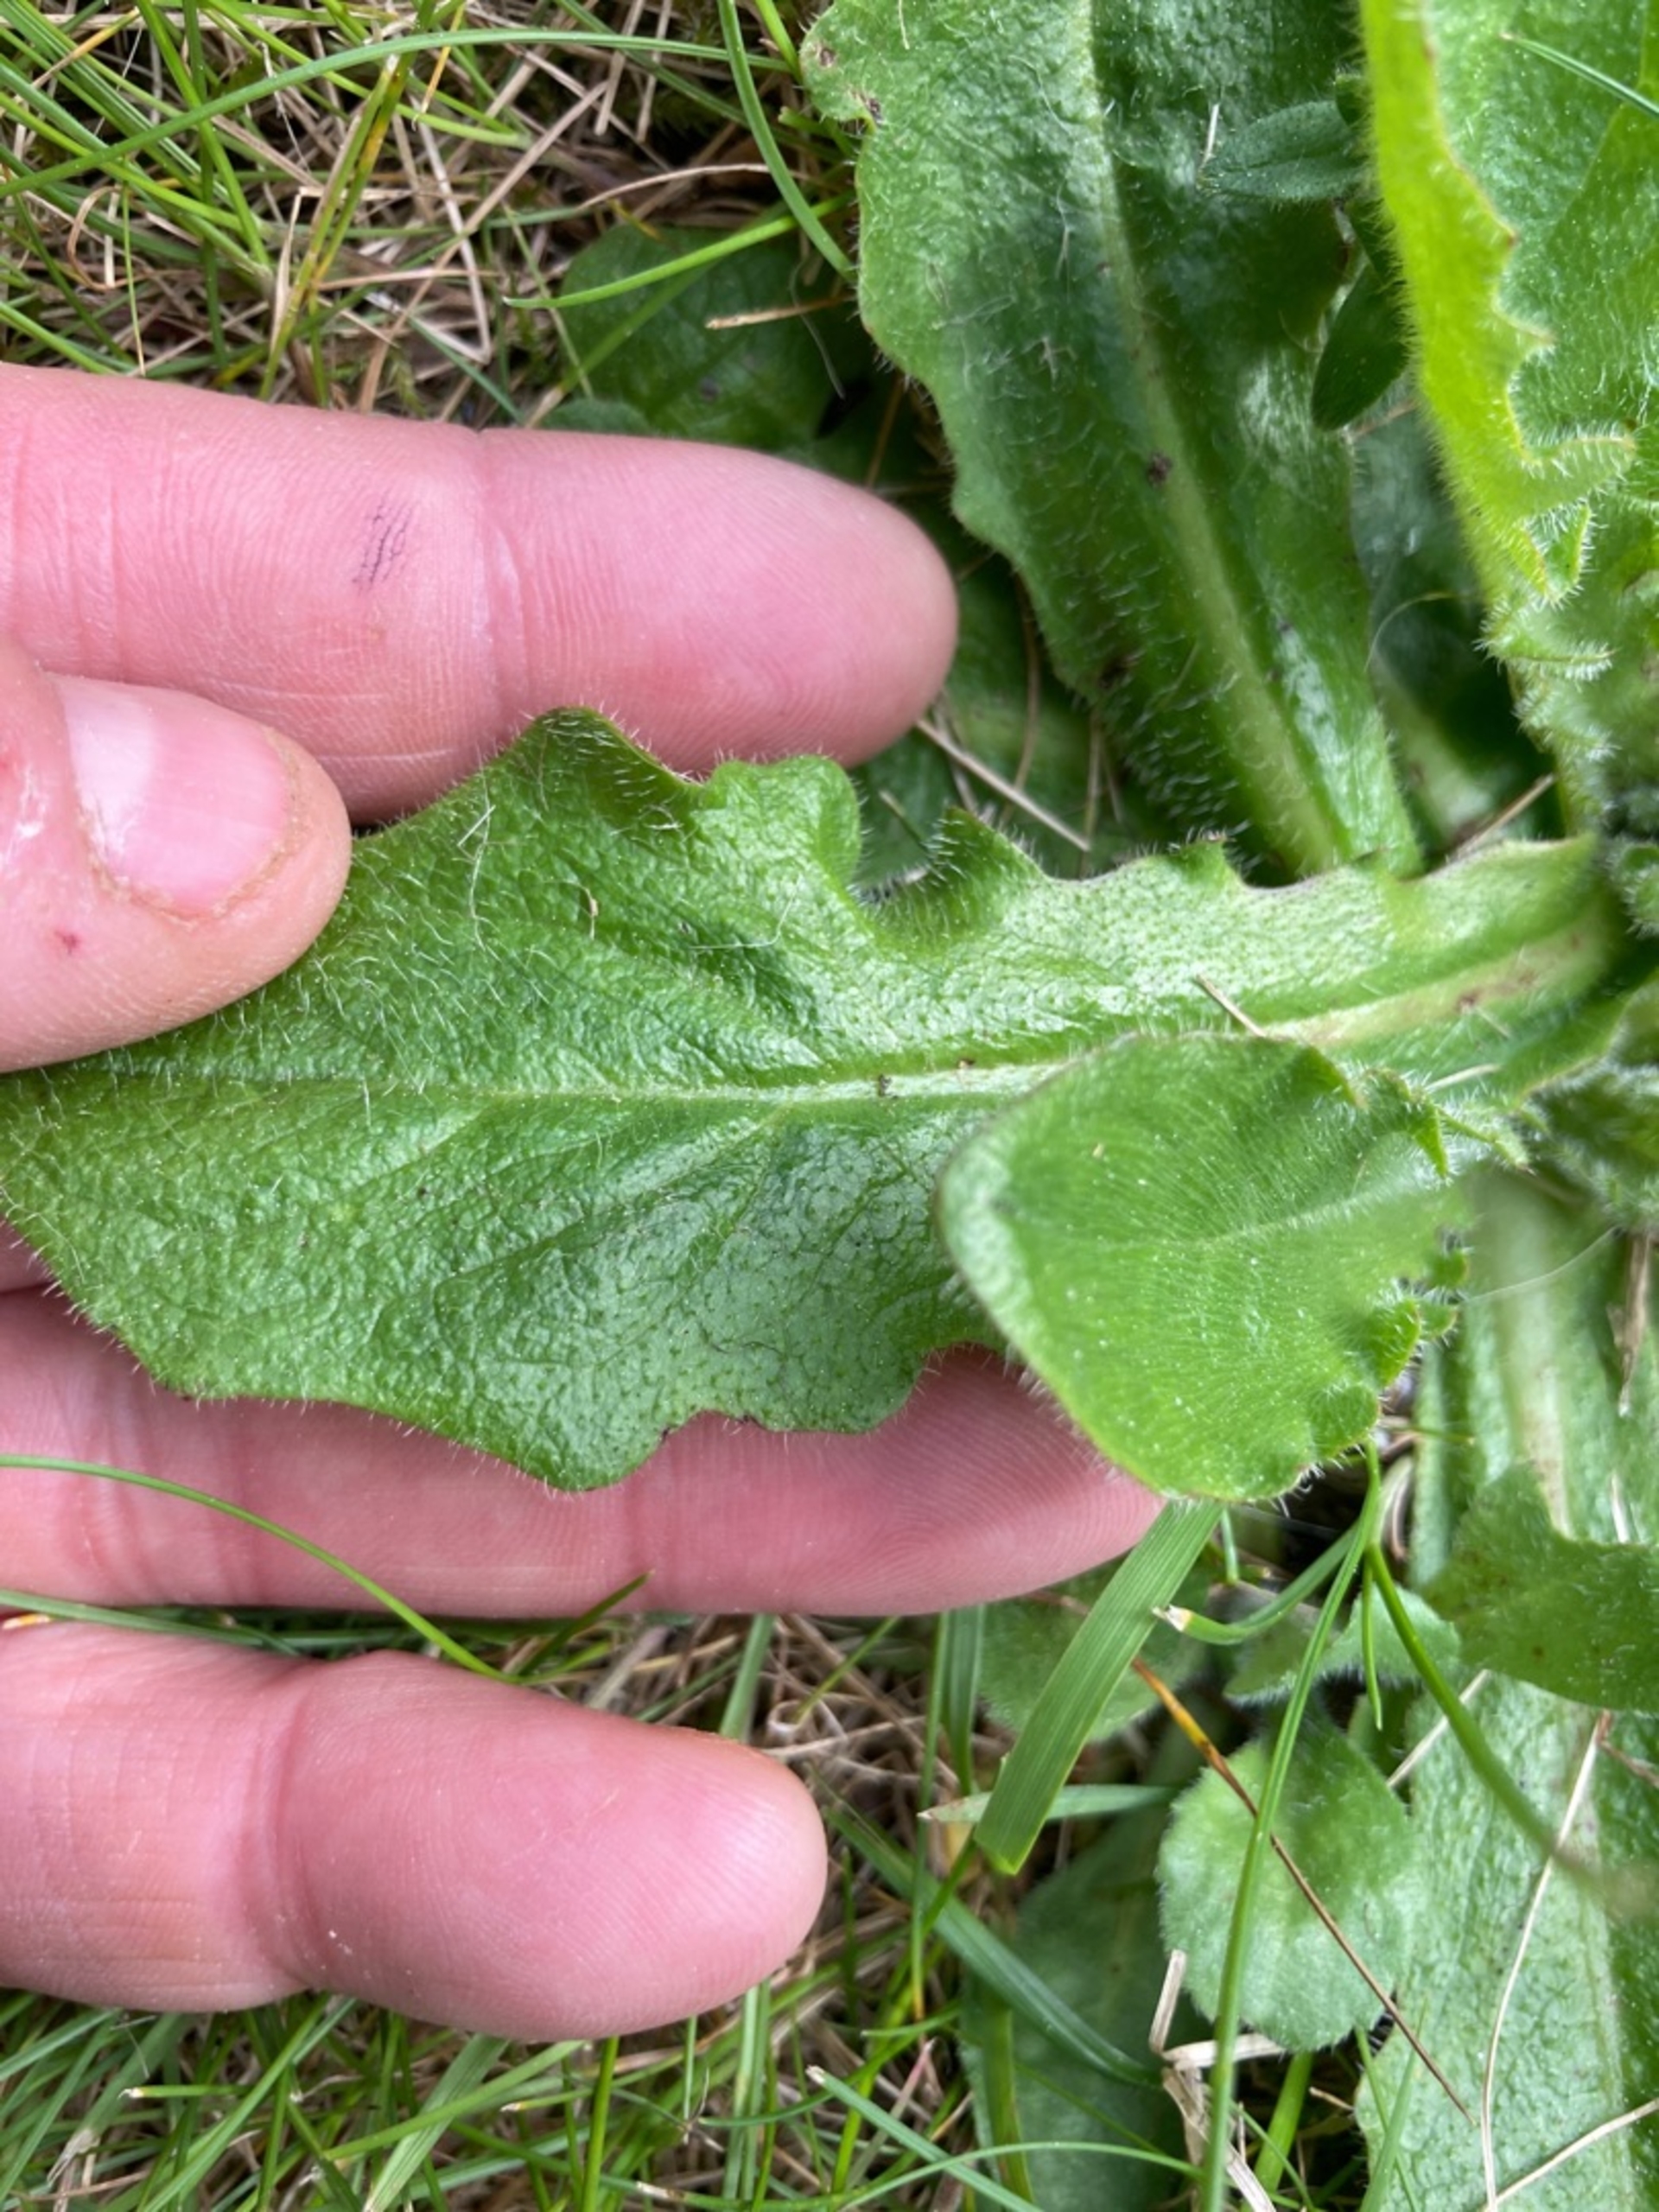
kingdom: Plantae
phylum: Tracheophyta
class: Magnoliopsida
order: Asterales
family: Asteraceae
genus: Hypochaeris
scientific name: Hypochaeris radicata
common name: Almindelig kongepen
